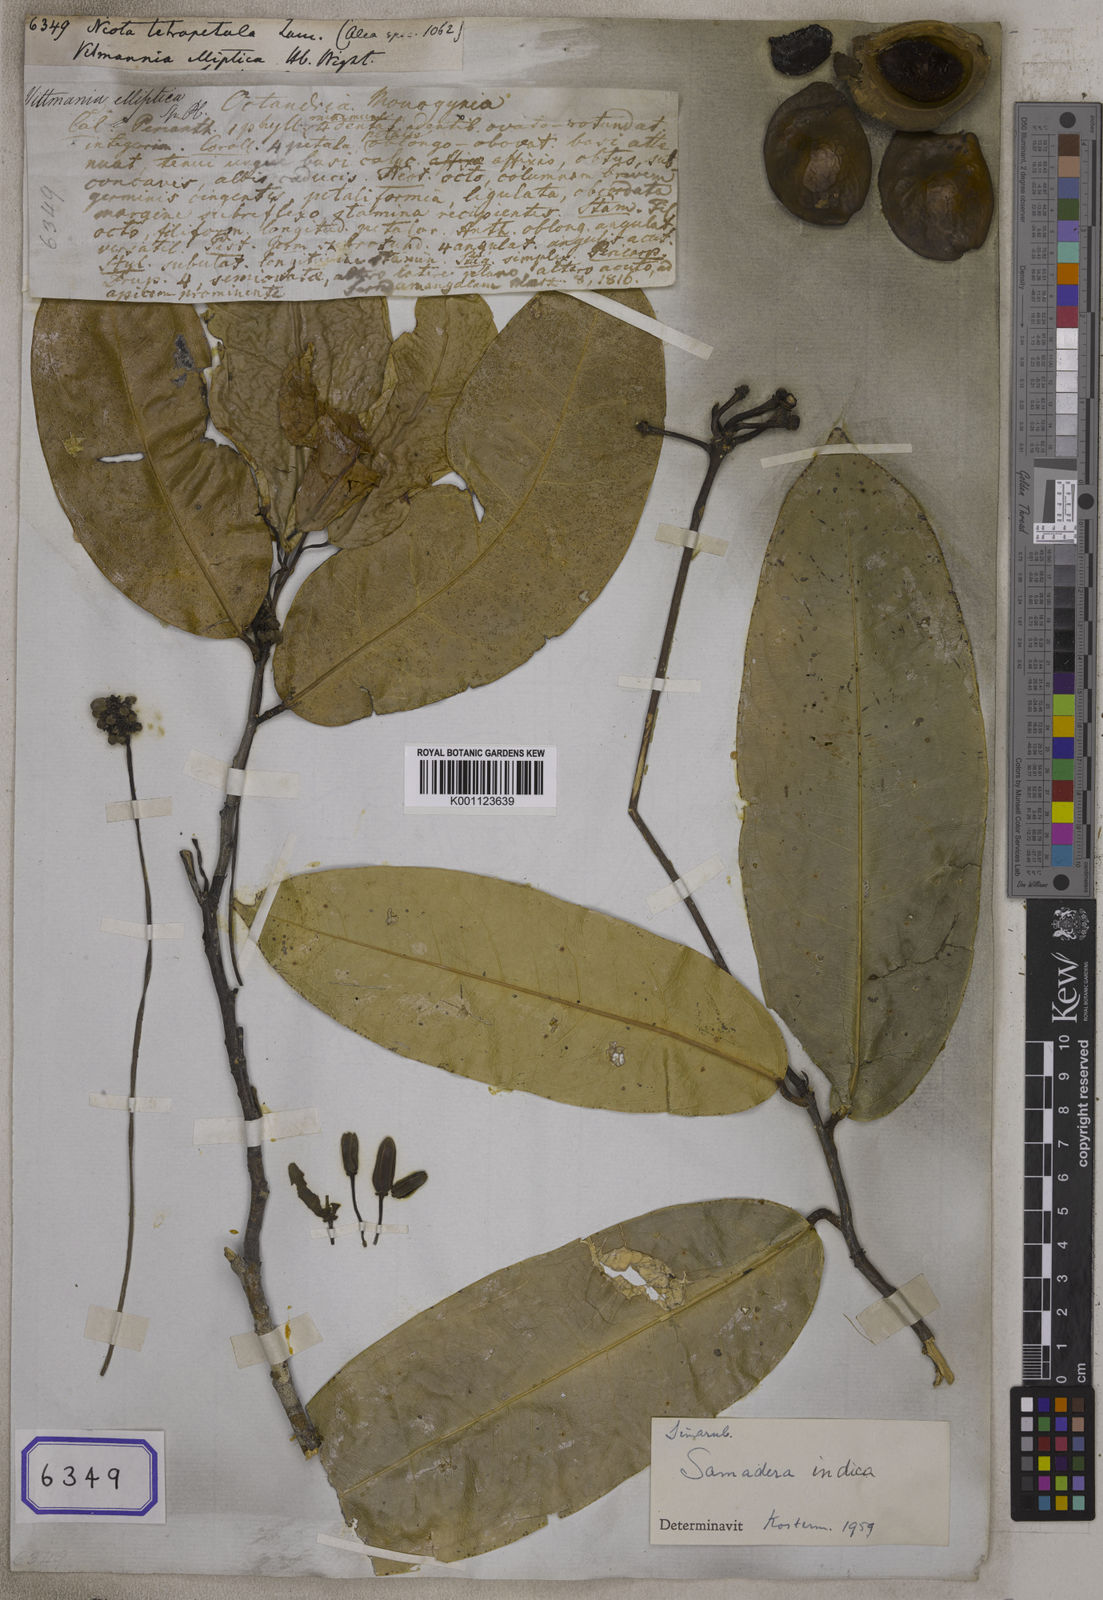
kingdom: Plantae
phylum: Tracheophyta
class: Magnoliopsida
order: Sapindales
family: Simaroubaceae
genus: Samadera
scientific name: Samadera indica
